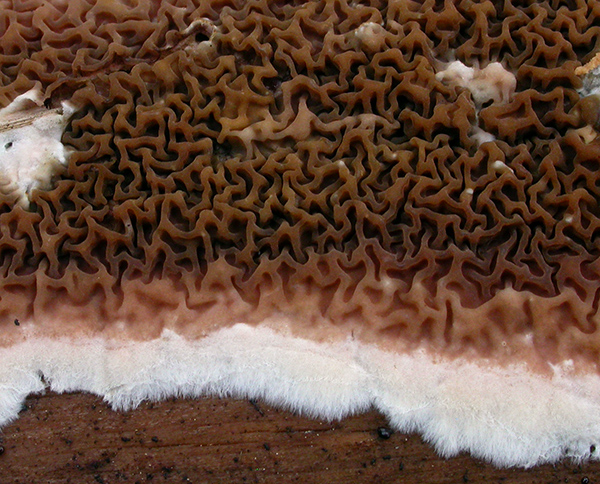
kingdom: Fungi
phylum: Basidiomycota
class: Agaricomycetes
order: Boletales
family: Serpulaceae
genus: Serpula
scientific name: Serpula himantioides
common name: tyndkødet hussvamp
